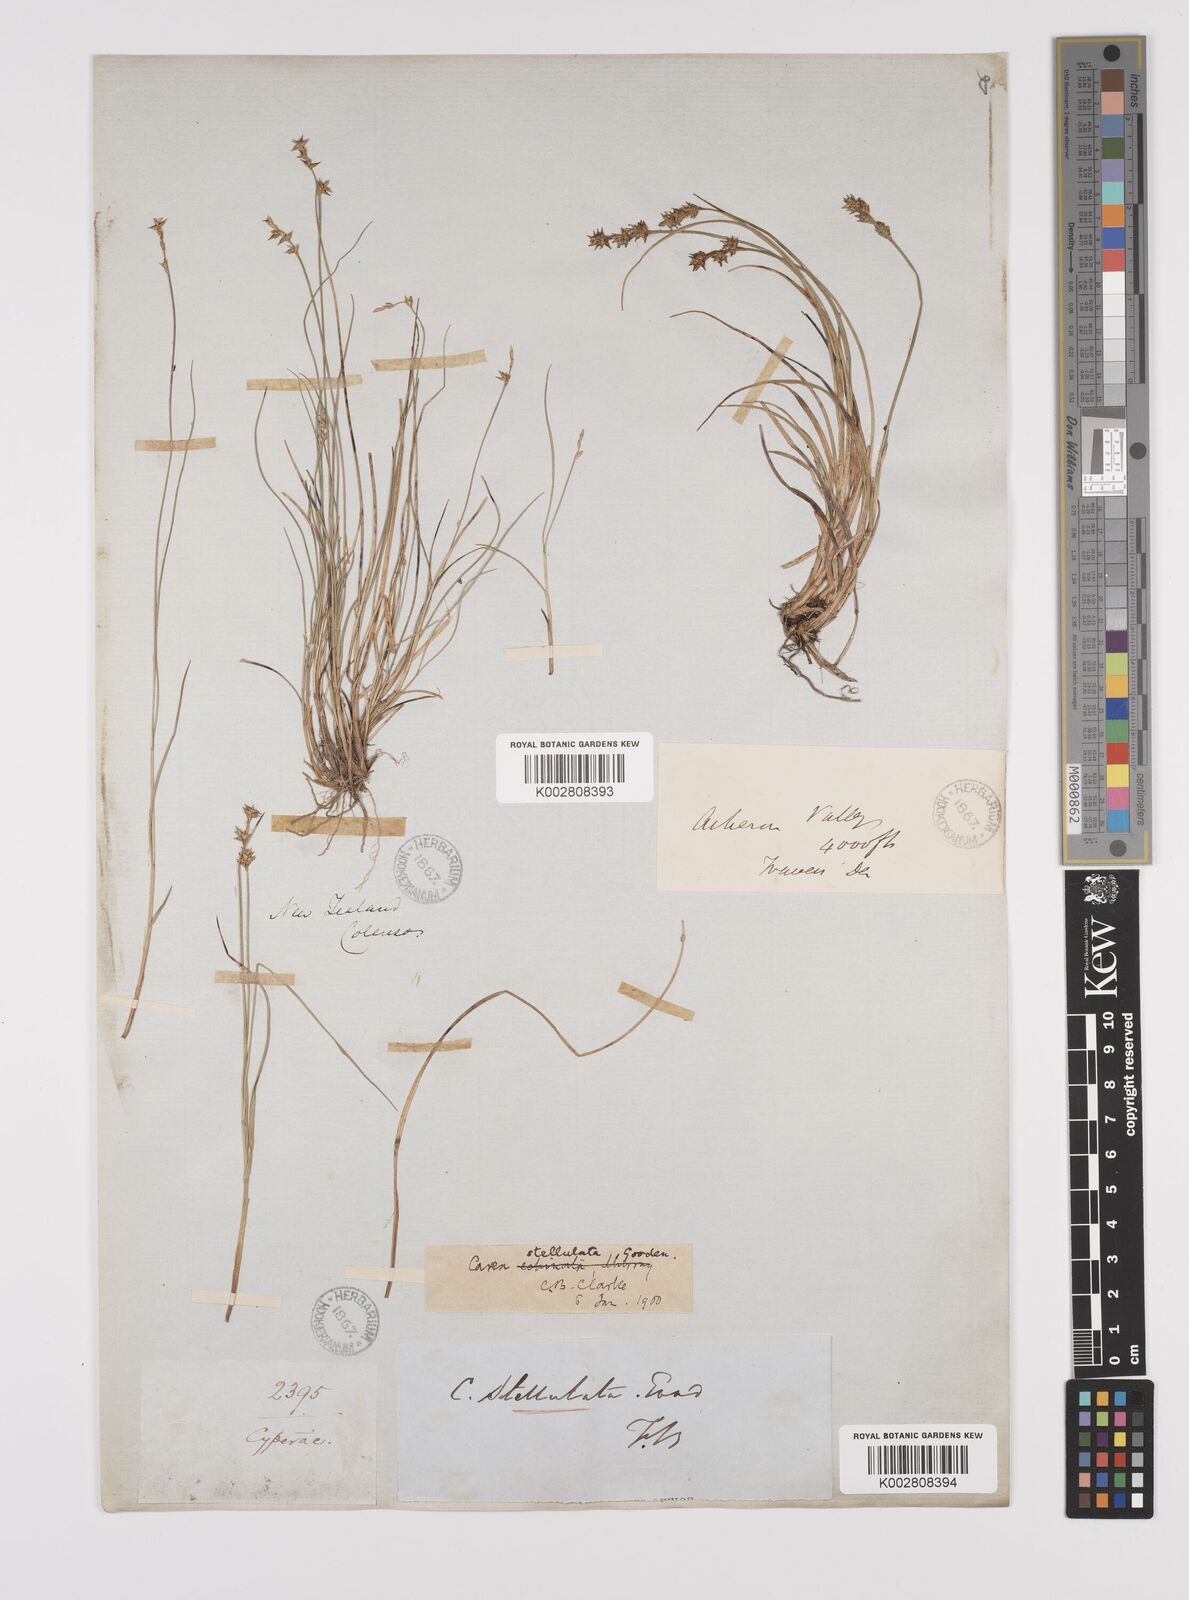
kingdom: Plantae
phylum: Tracheophyta
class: Liliopsida
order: Poales
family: Cyperaceae
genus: Carex
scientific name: Carex echinata
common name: Star sedge
